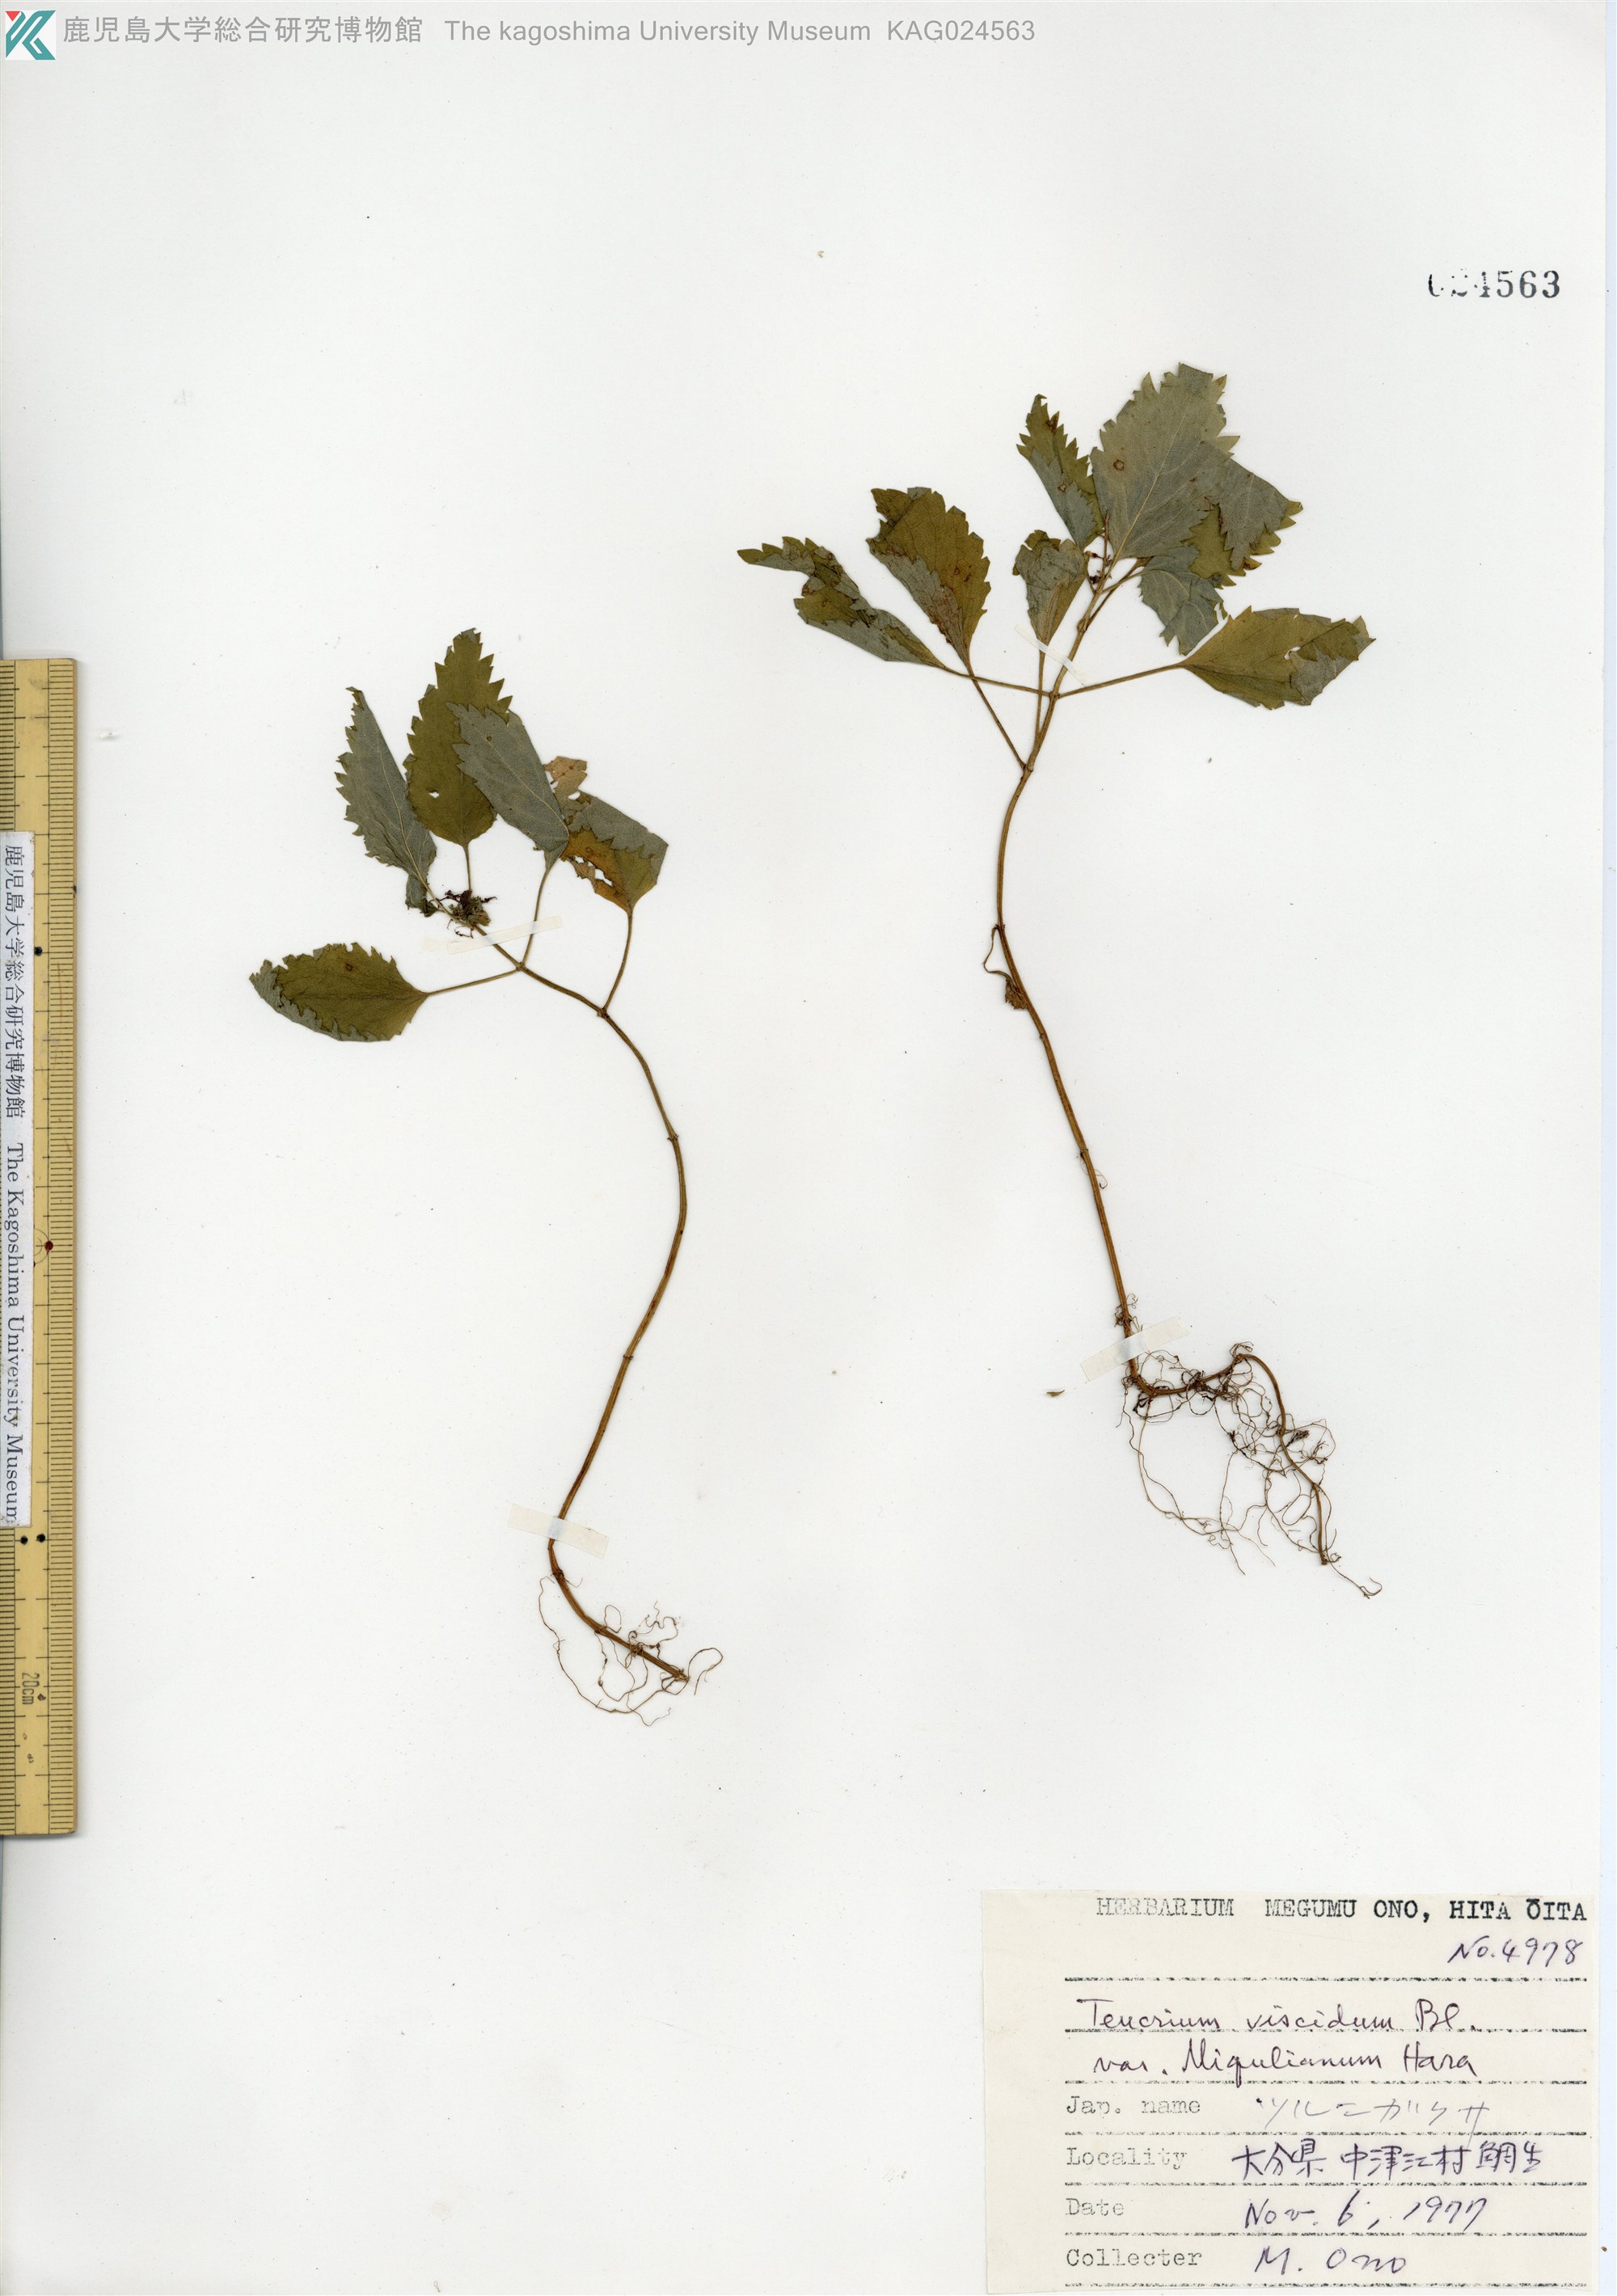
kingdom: Plantae
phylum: Tracheophyta
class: Magnoliopsida
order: Lamiales
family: Lamiaceae
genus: Teucrium
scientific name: Teucrium viscidum
